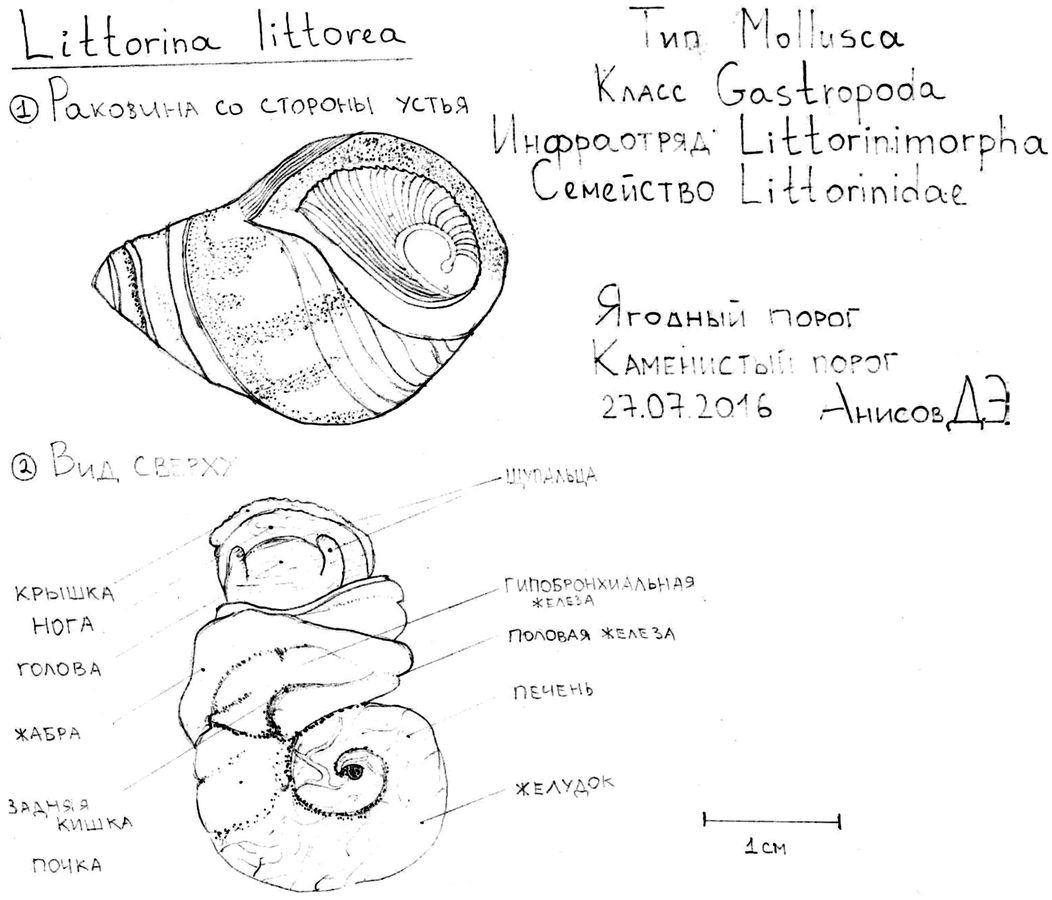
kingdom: Animalia
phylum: Mollusca
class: Gastropoda
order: Littorinimorpha
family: Littorinidae
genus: Littorina
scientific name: Littorina
